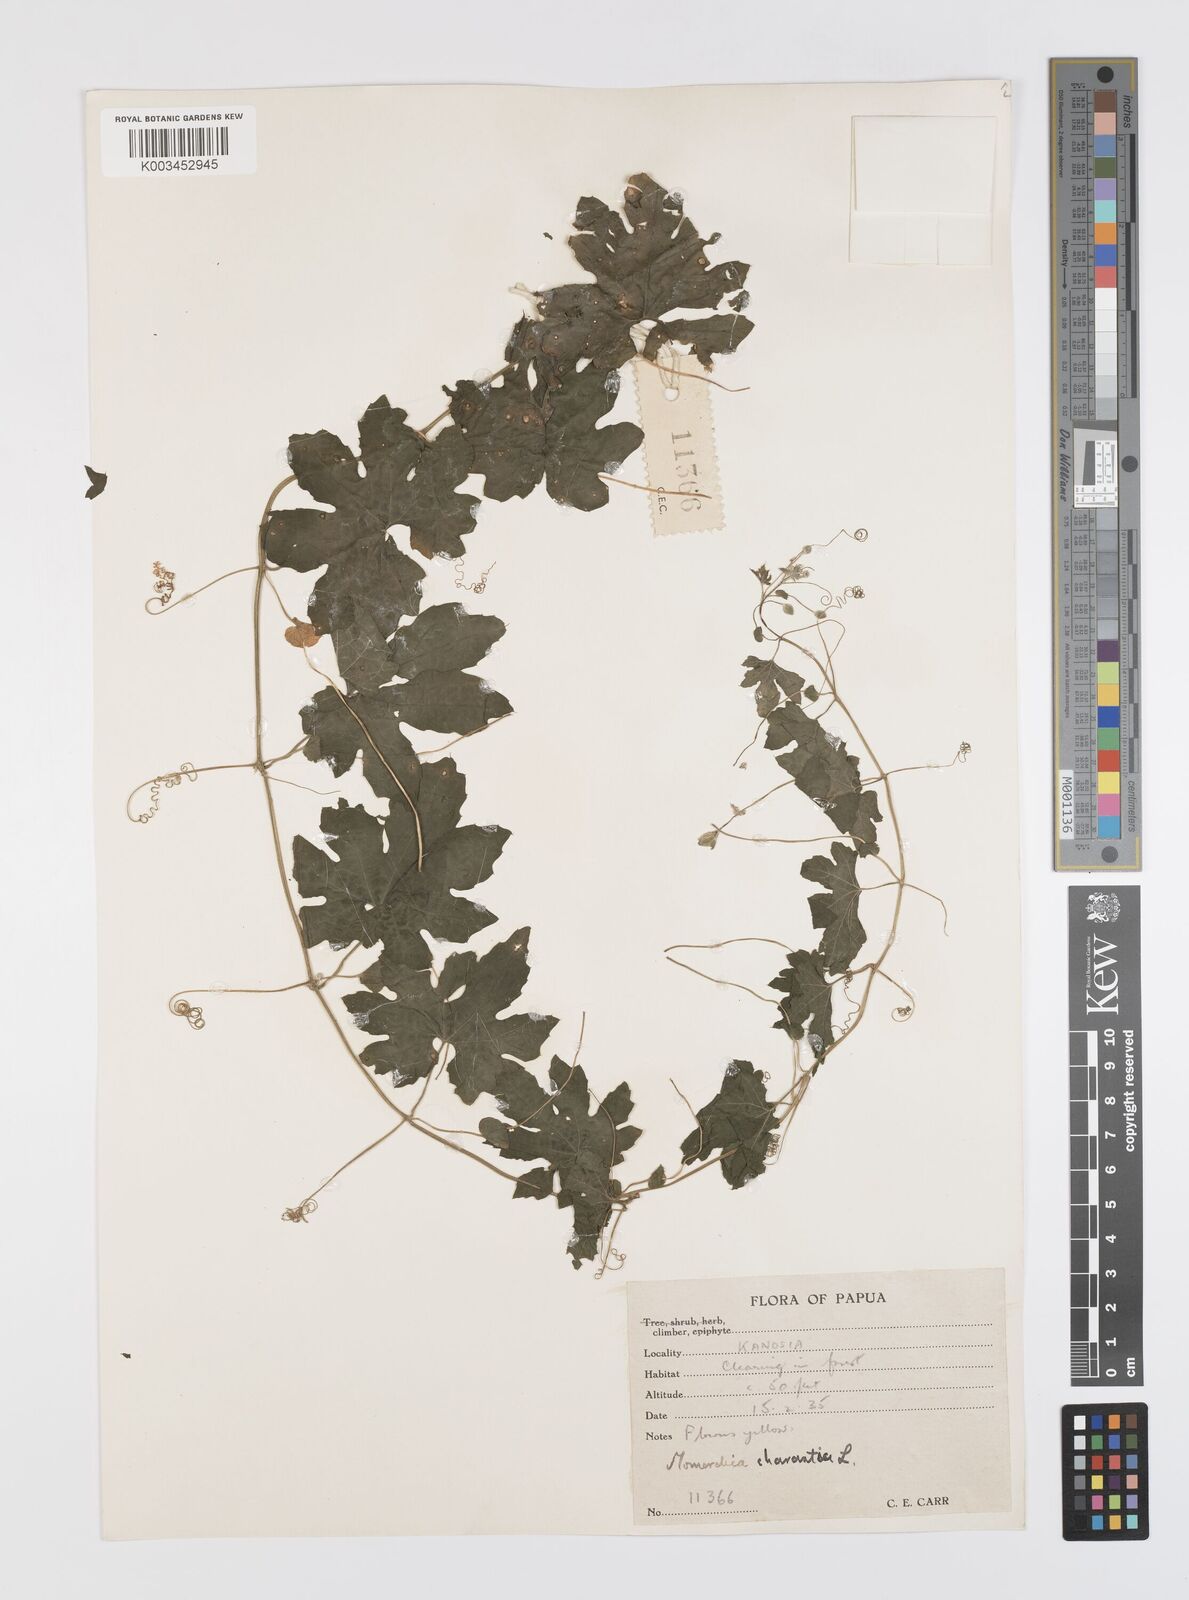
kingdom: Plantae
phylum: Tracheophyta
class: Magnoliopsida
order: Cucurbitales
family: Cucurbitaceae
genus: Momordica
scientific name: Momordica charantia
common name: Balsampear
